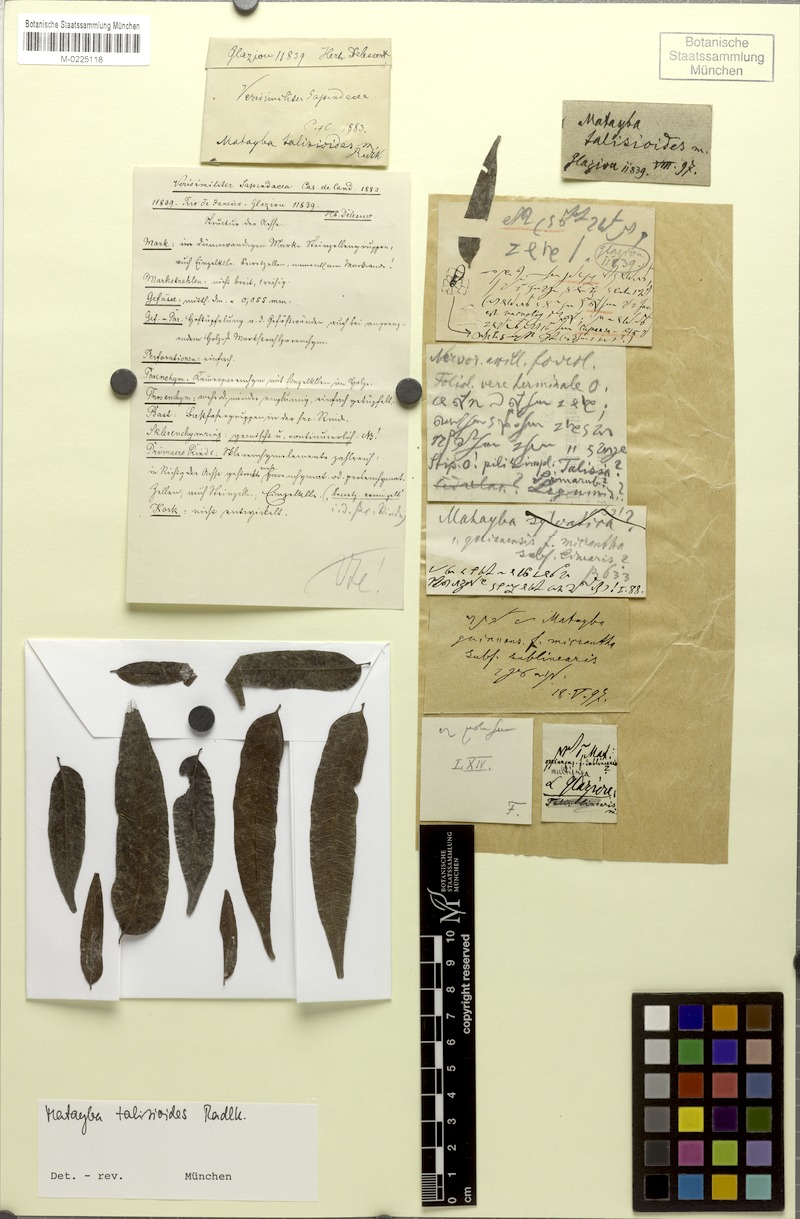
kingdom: Plantae
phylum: Tracheophyta
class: Magnoliopsida
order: Sapindales
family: Sapindaceae
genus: Matayba
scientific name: Matayba talisioides
